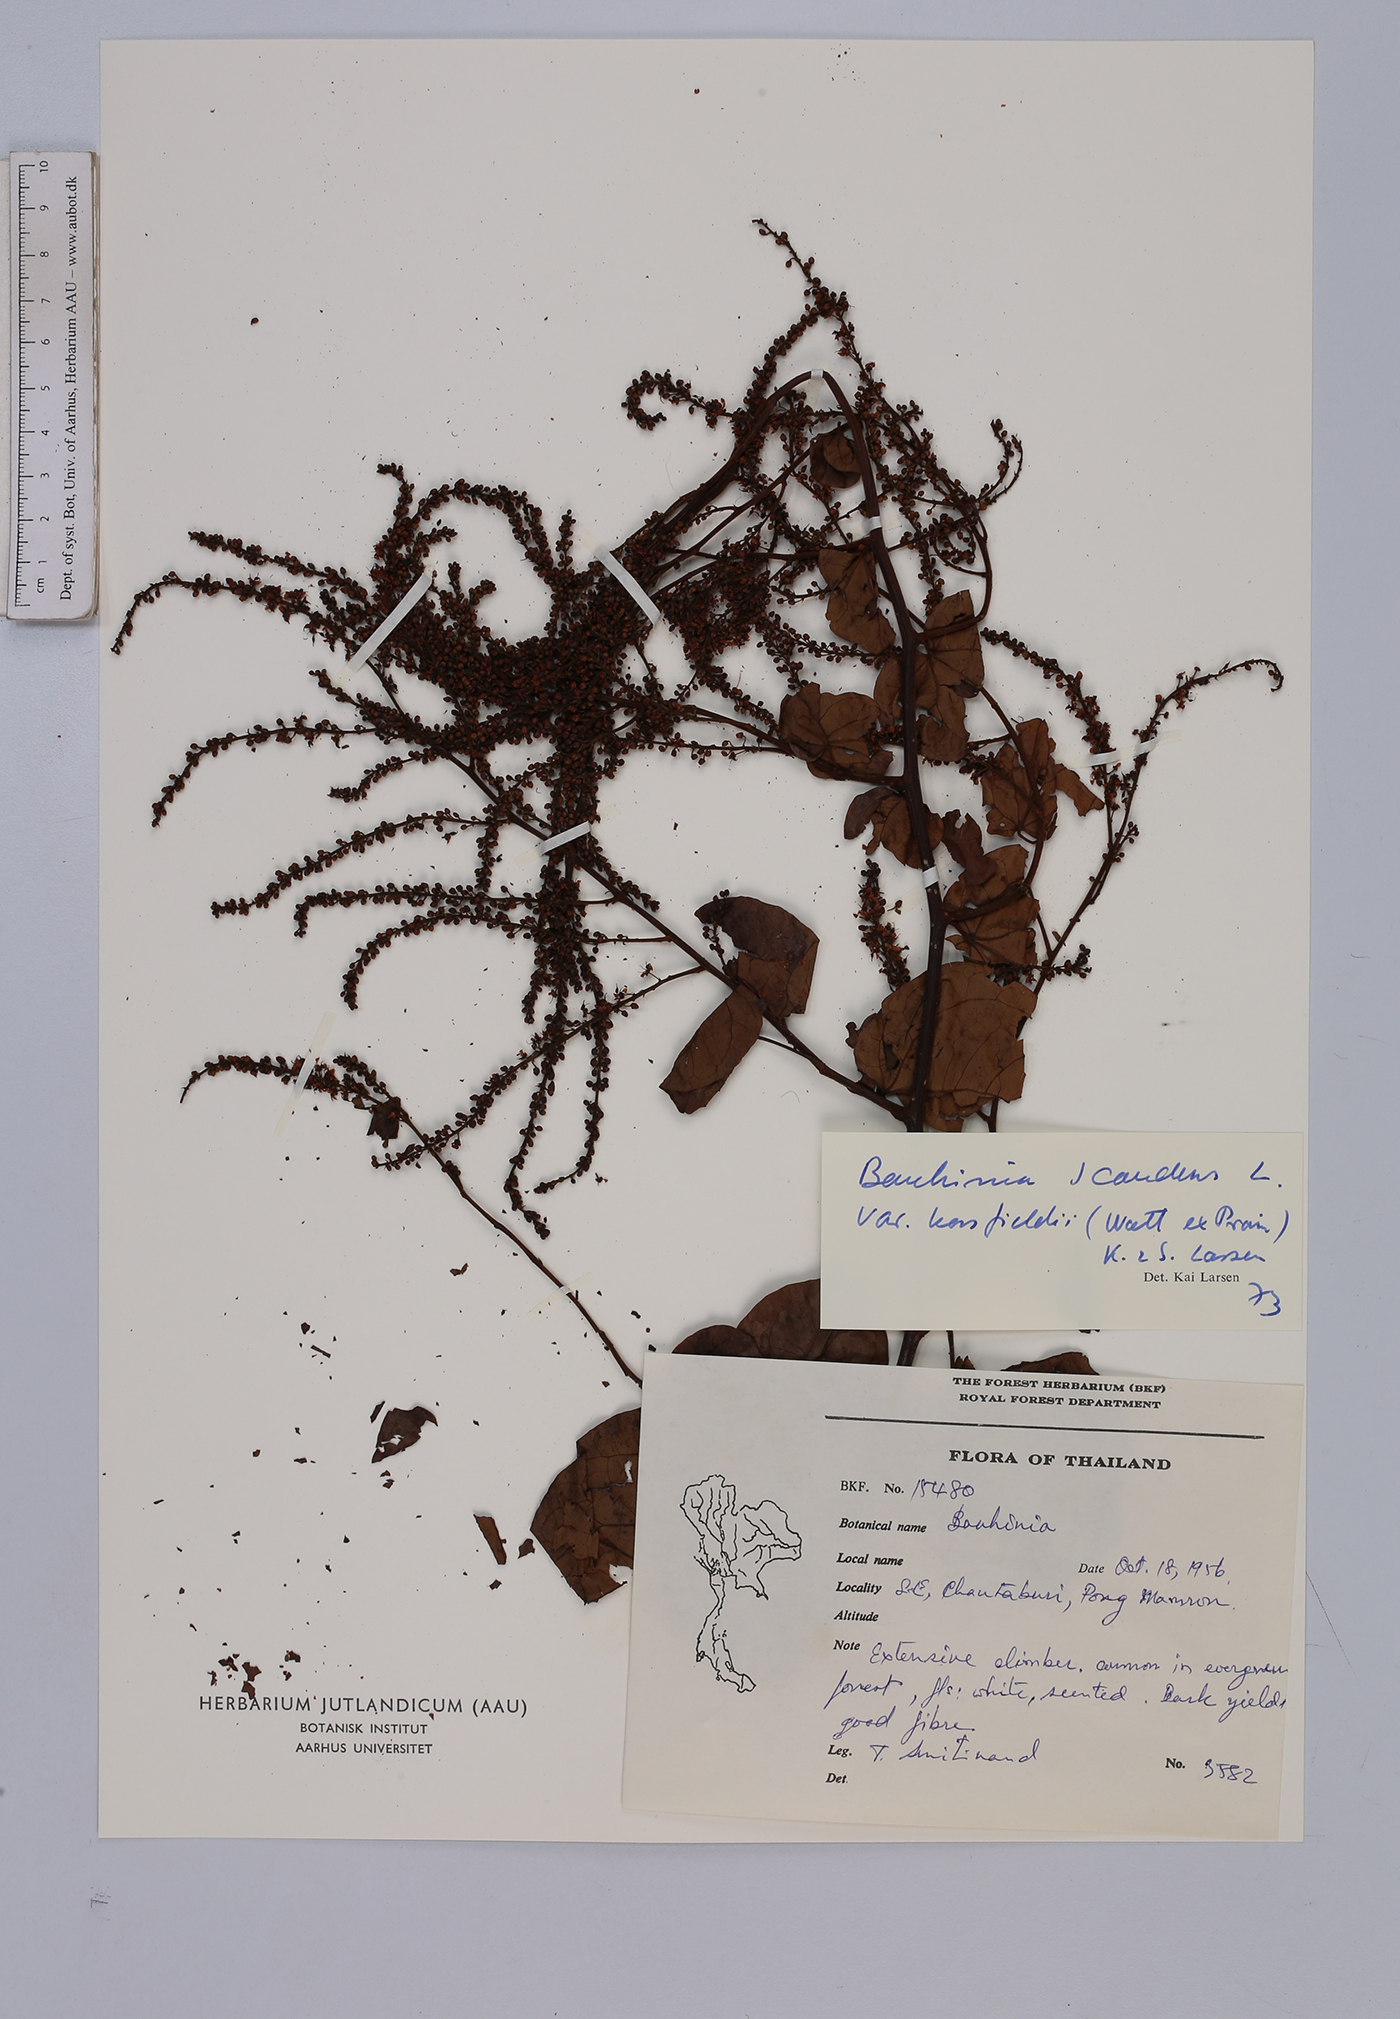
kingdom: Plantae
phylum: Tracheophyta
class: Magnoliopsida
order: Fabales
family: Fabaceae
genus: Phanera
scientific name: Phanera scandens
